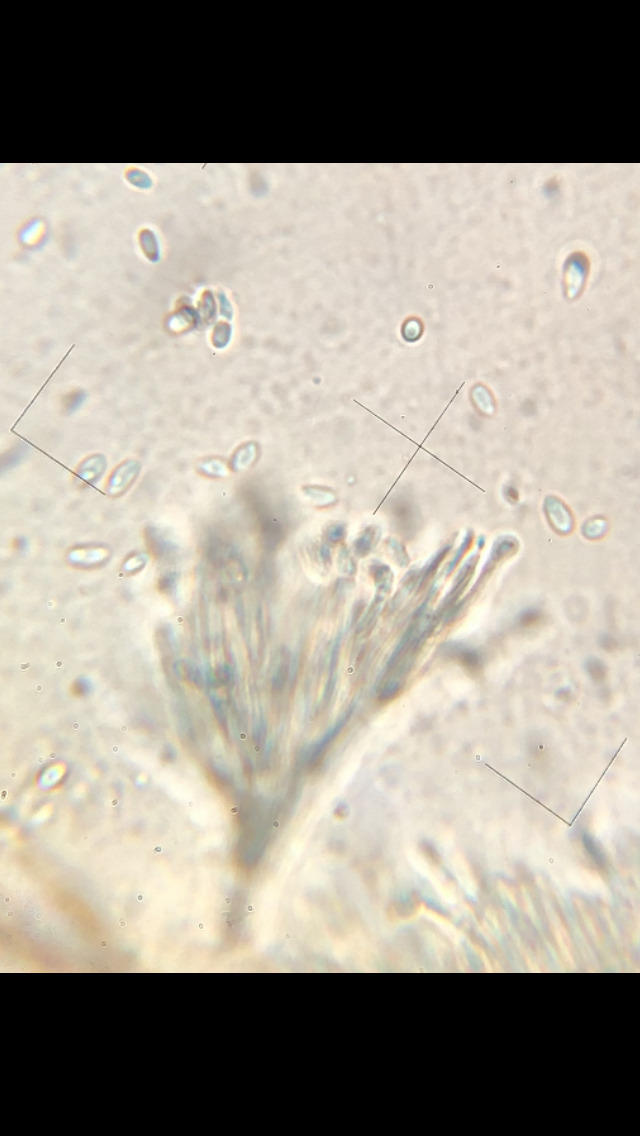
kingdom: Fungi
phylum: Ascomycota
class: Eurotiomycetes
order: Chaetothyriales
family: Herpotrichiellaceae
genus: Exophiala
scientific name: Exophiala calicioides
